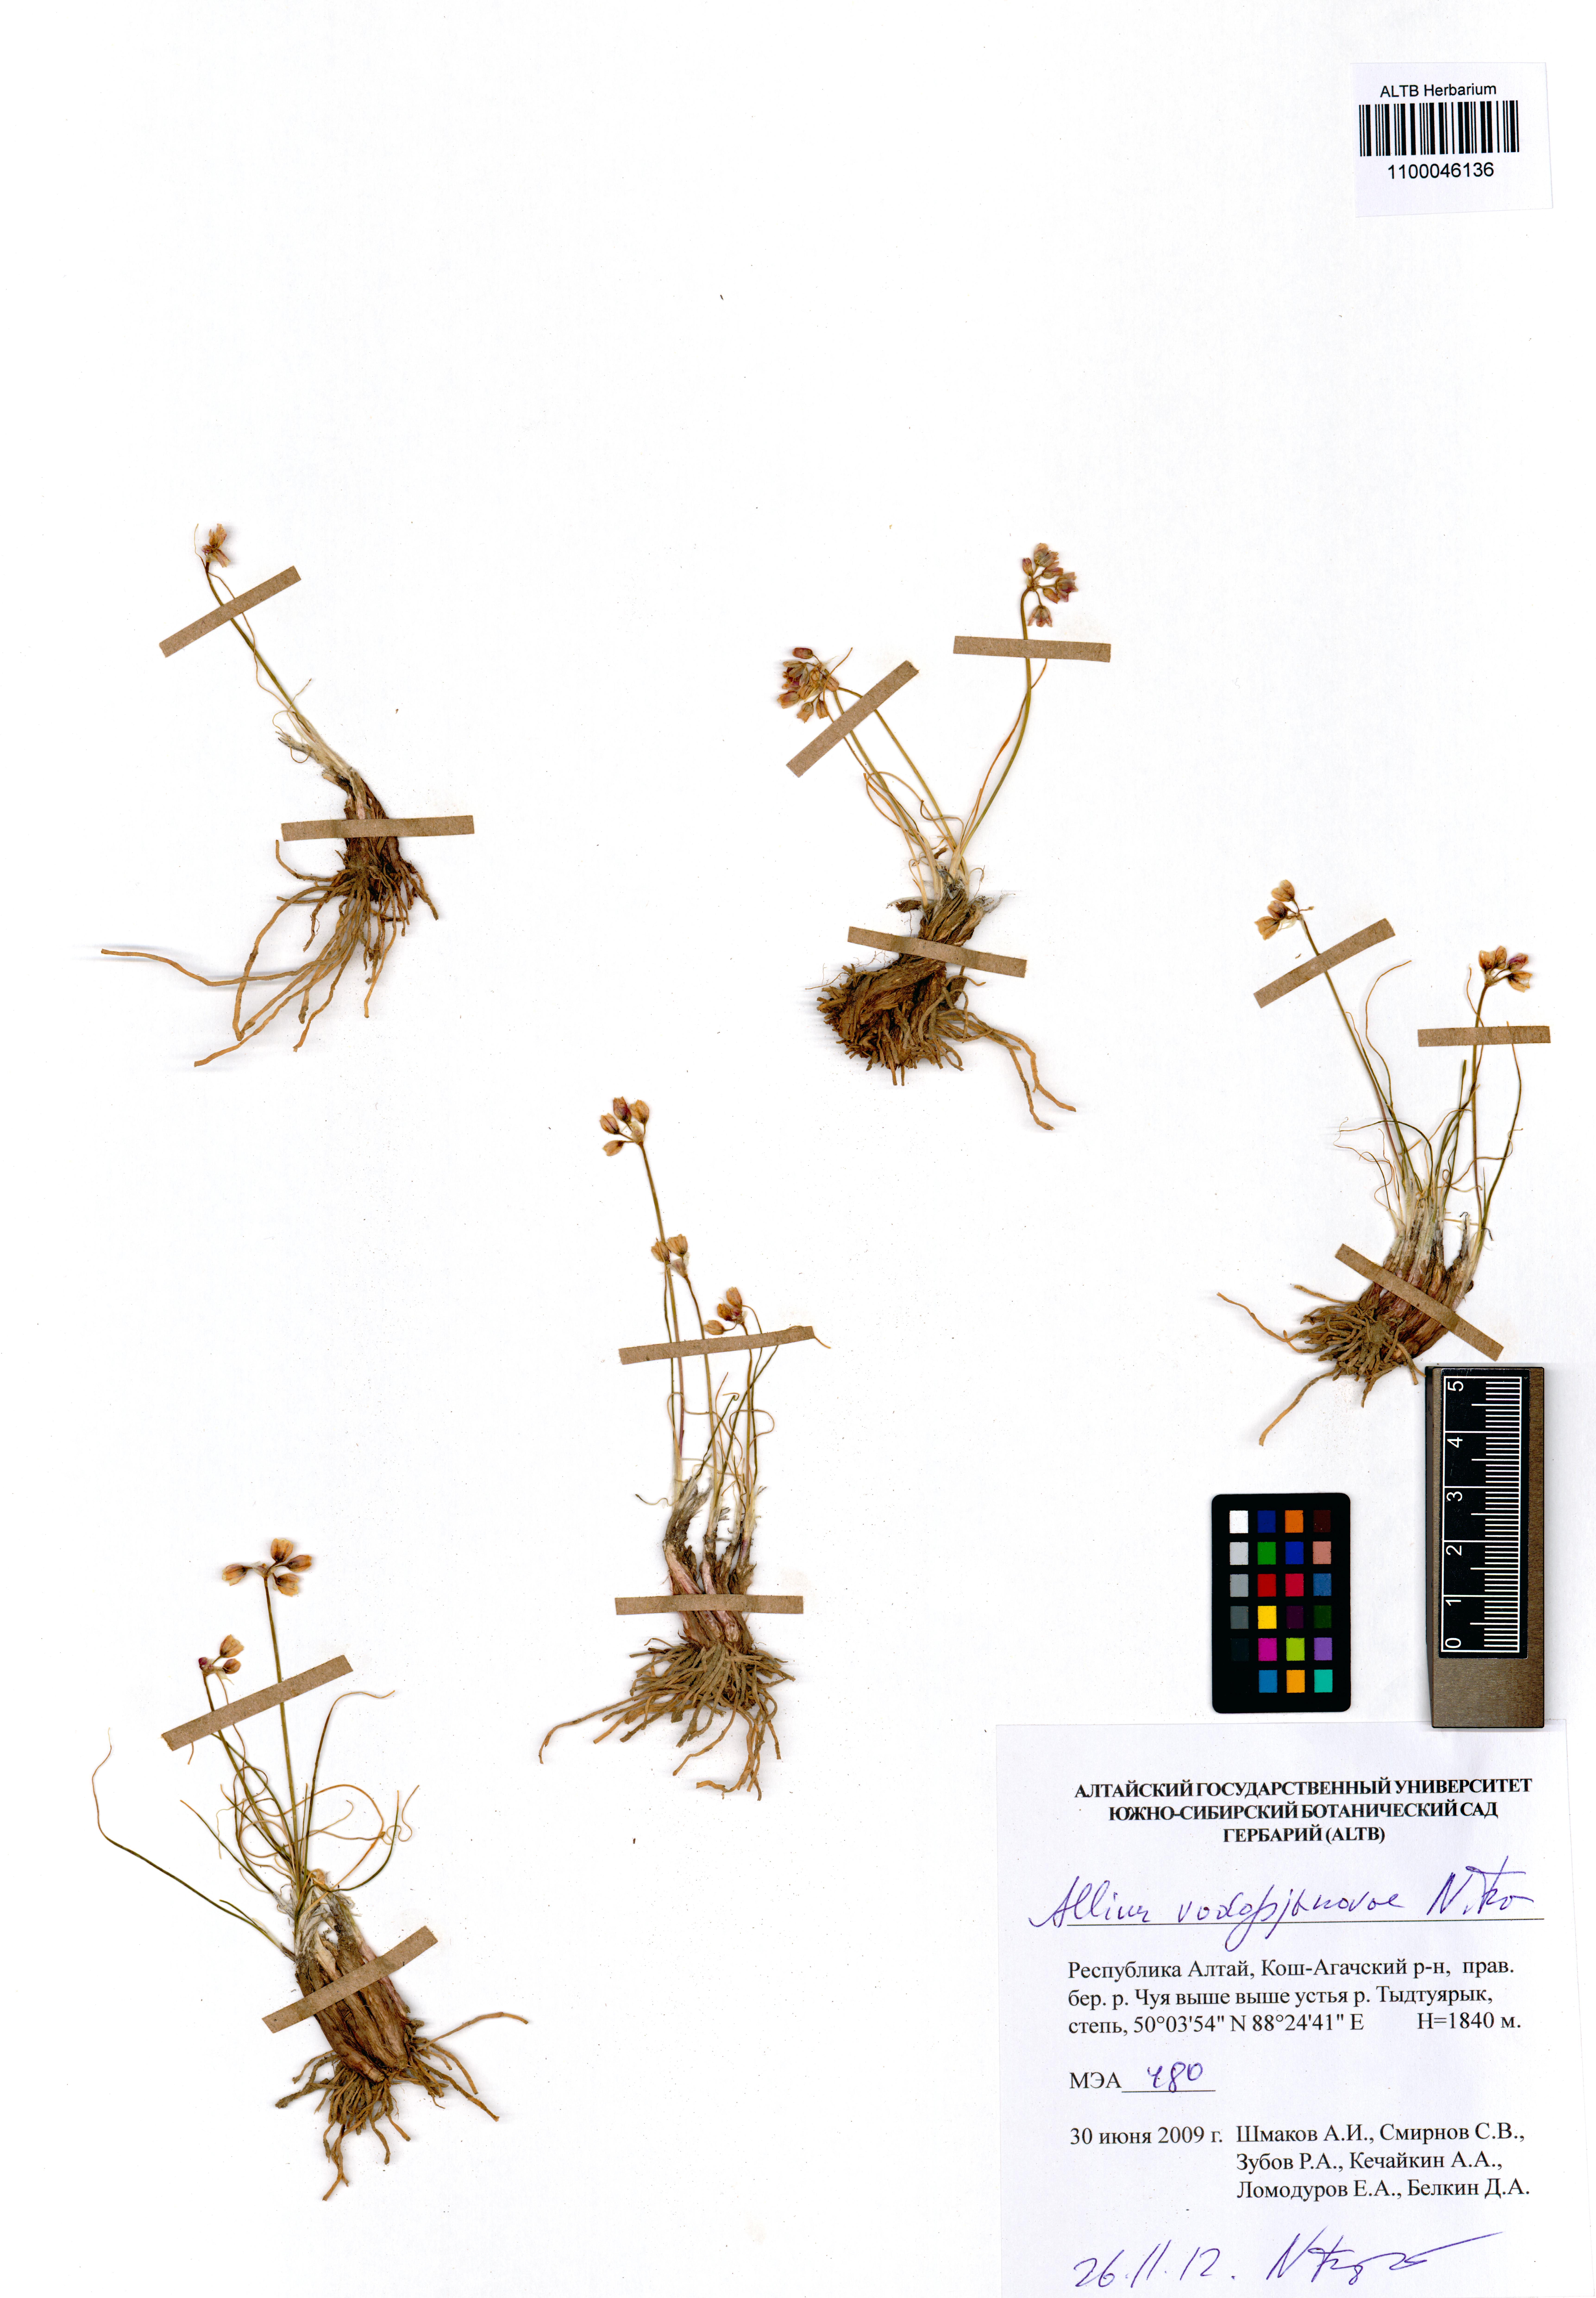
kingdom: Plantae
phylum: Tracheophyta
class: Liliopsida
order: Asparagales
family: Amaryllidaceae
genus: Allium
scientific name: Allium vodopjanovae
